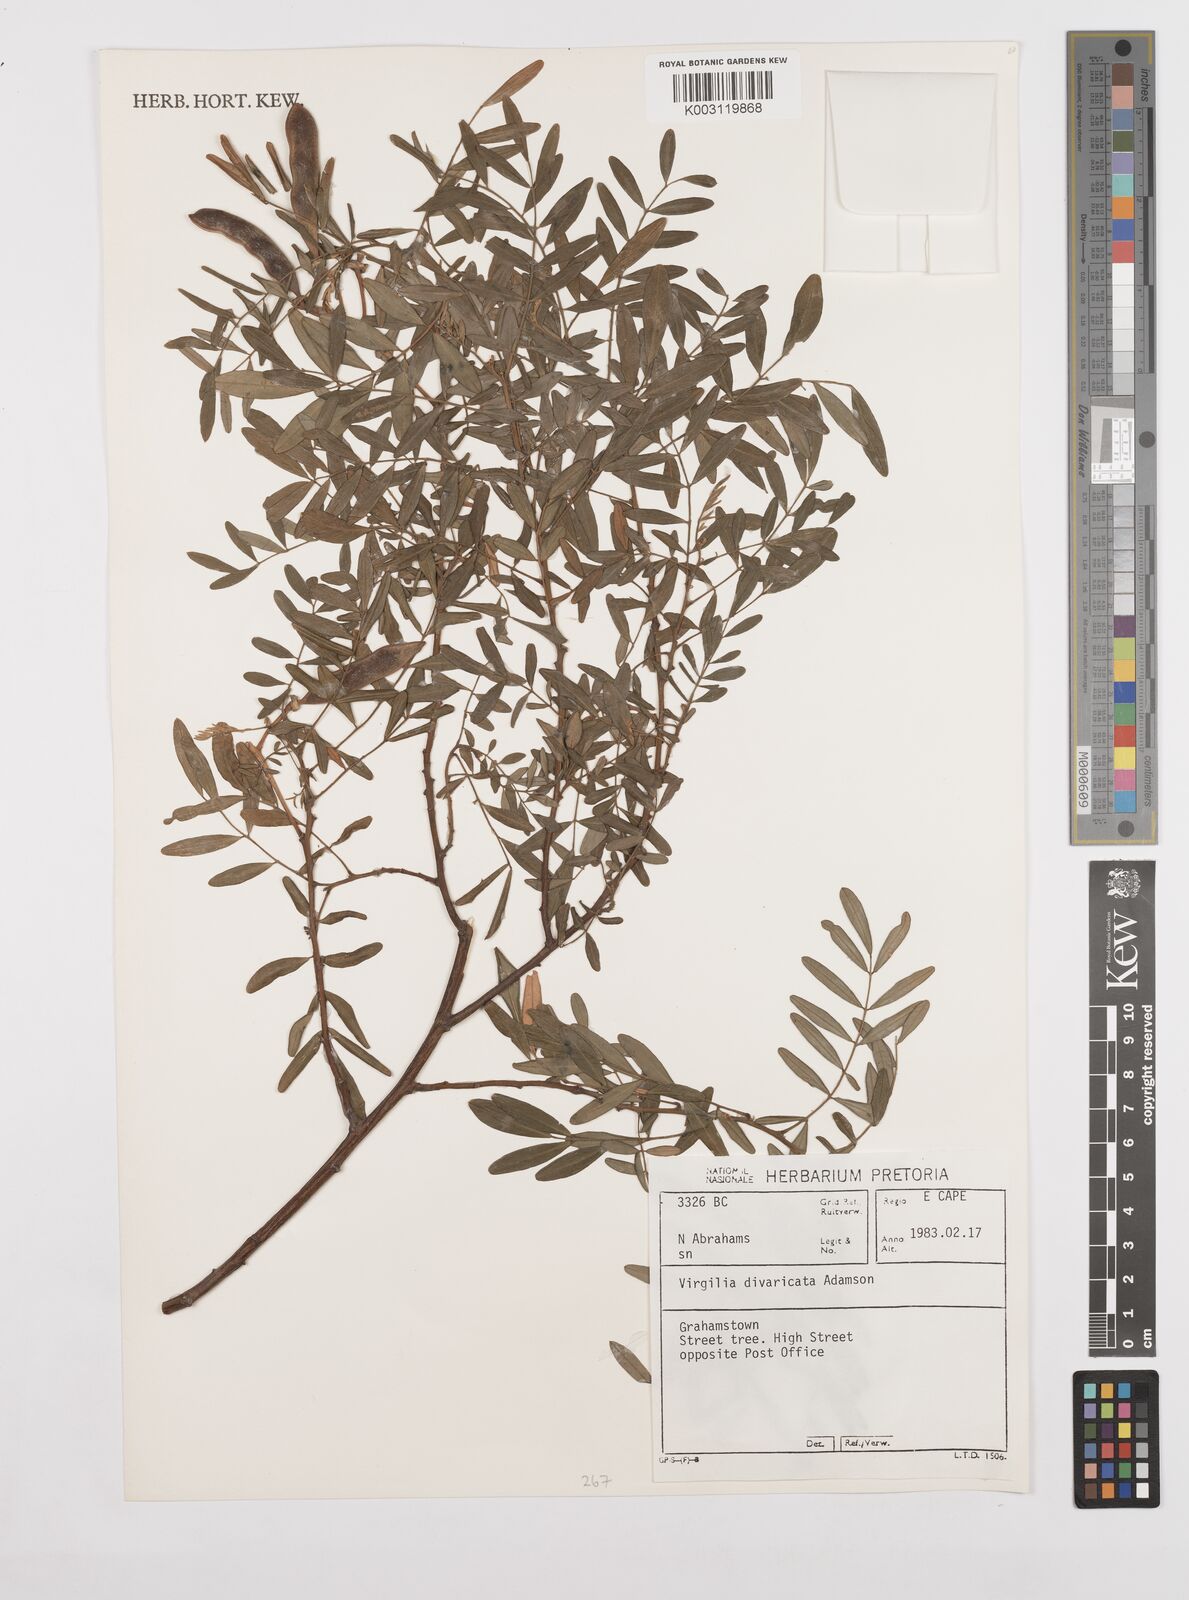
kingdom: Plantae
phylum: Tracheophyta
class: Magnoliopsida
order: Fabales
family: Fabaceae
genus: Virgilia
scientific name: Virgilia divaricata
